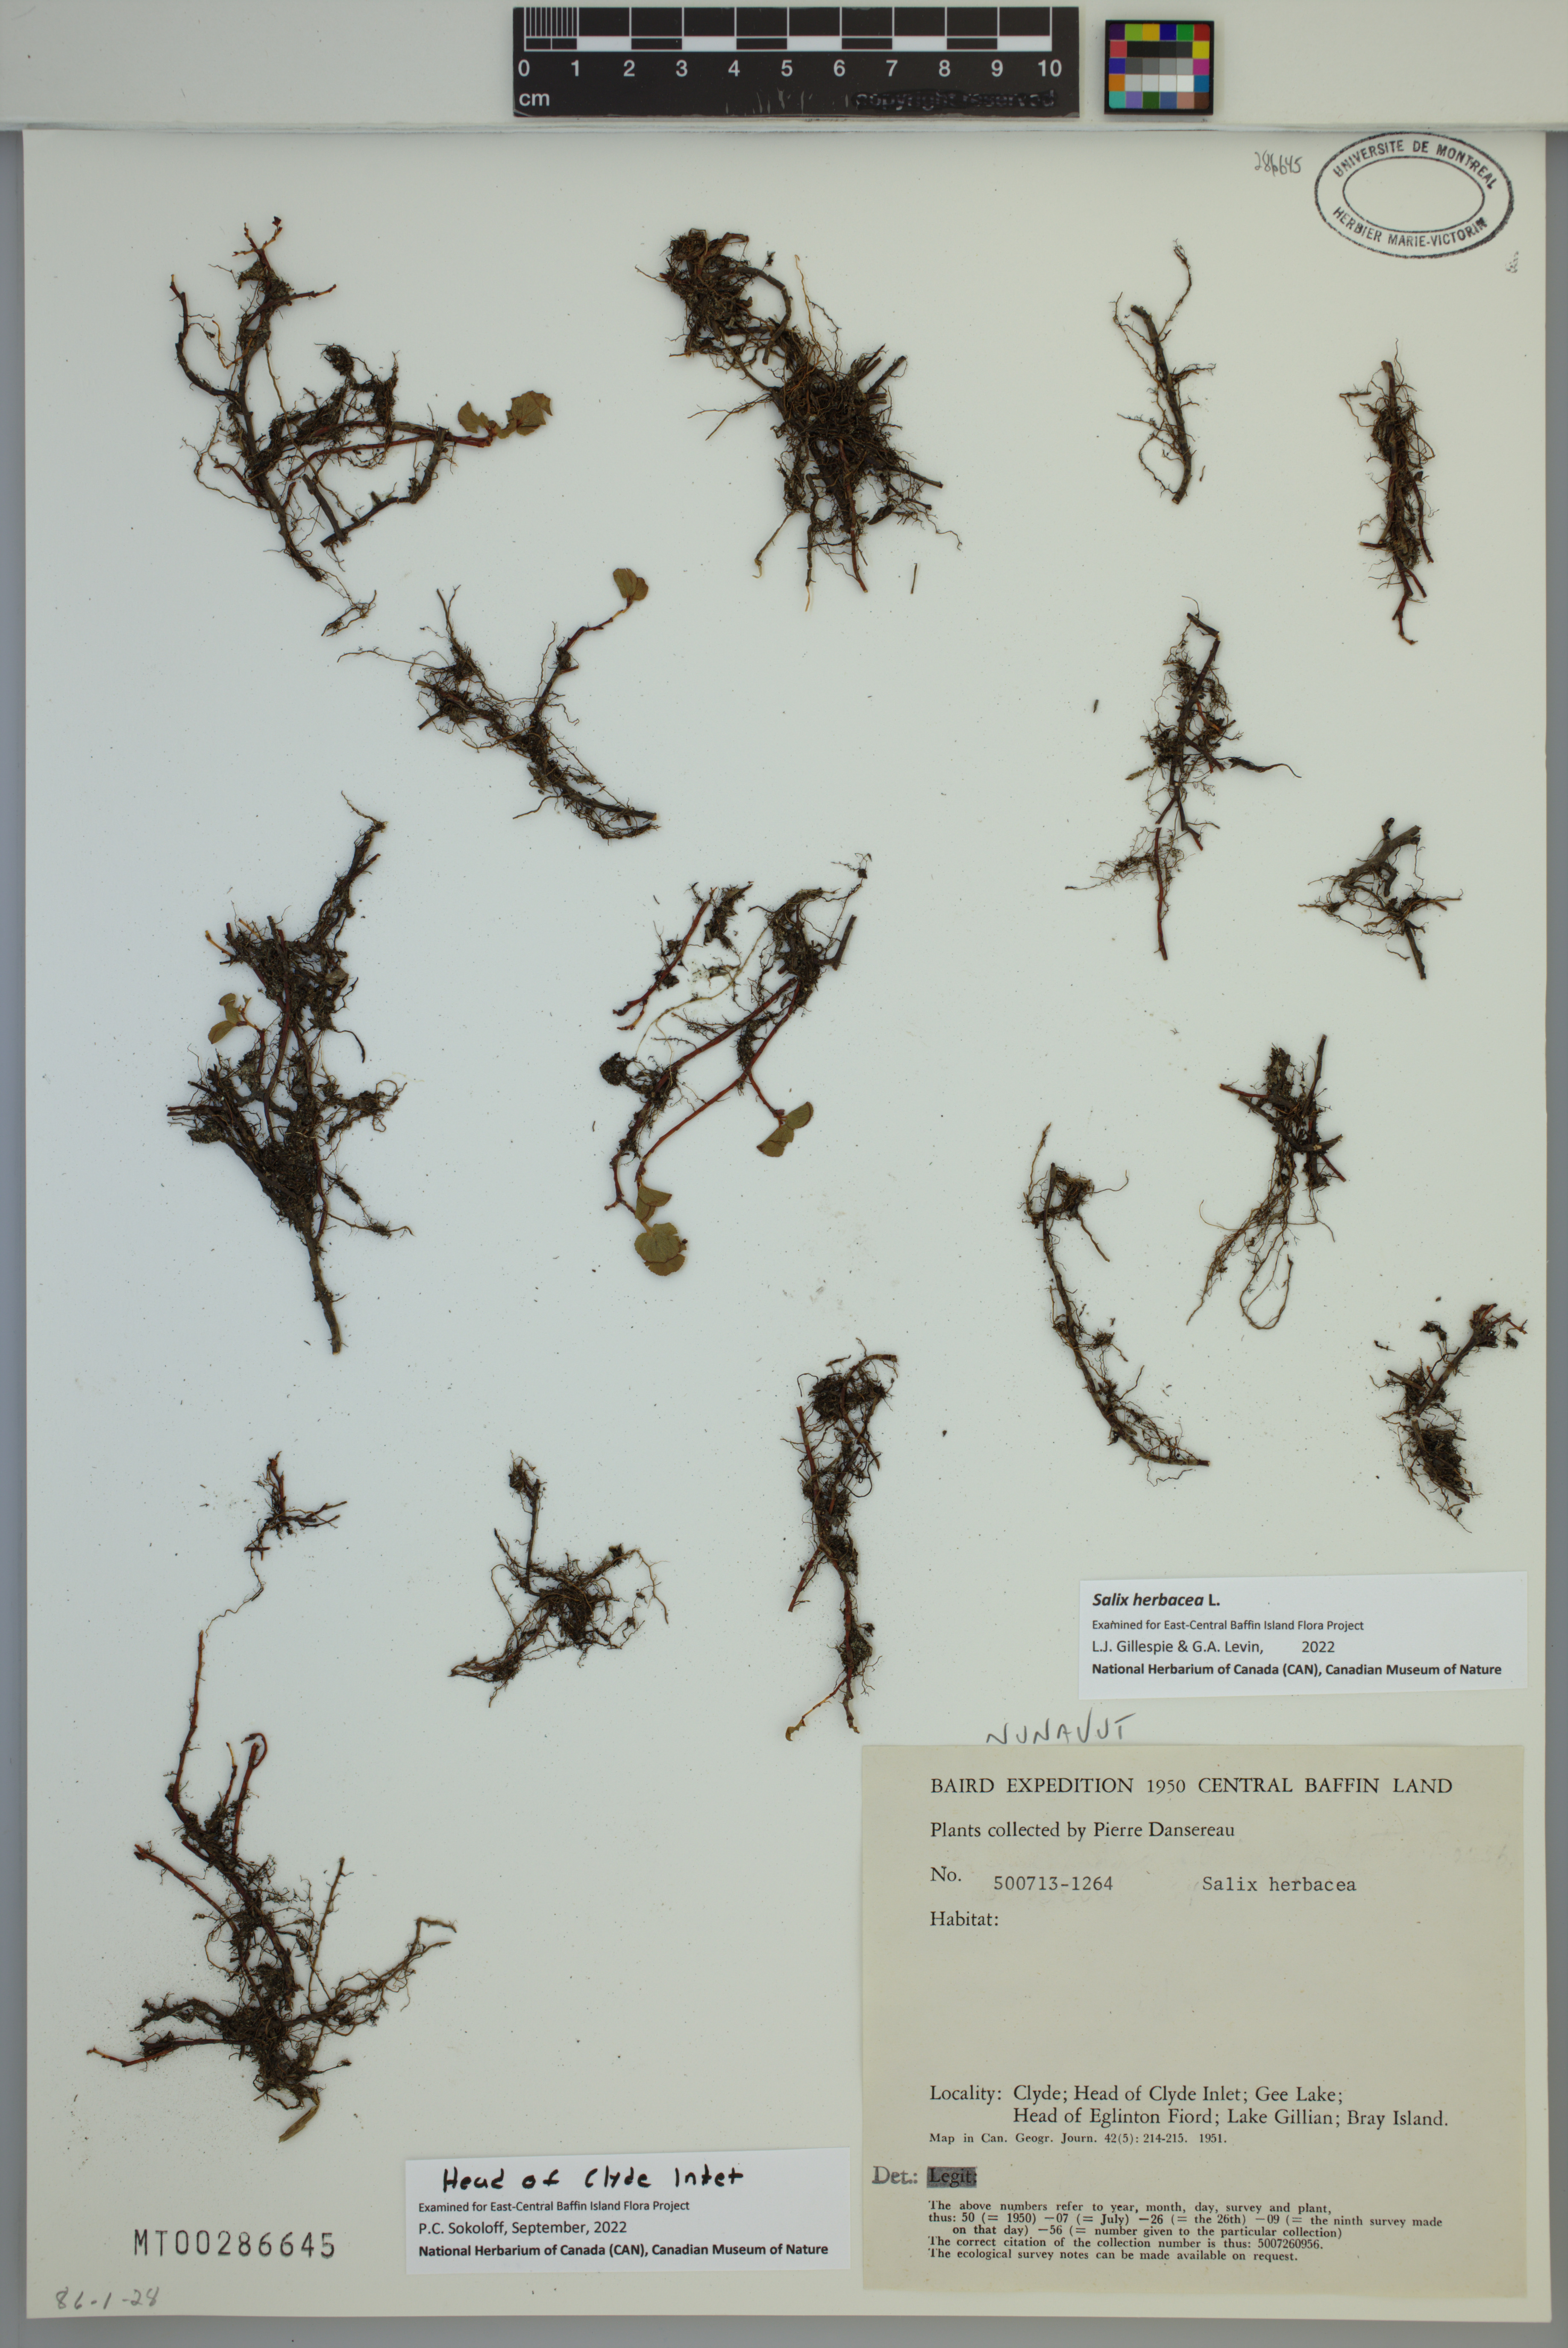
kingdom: Plantae
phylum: Tracheophyta
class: Magnoliopsida
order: Malpighiales
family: Salicaceae
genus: Salix
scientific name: Salix herbacea
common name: Dwarf willow
